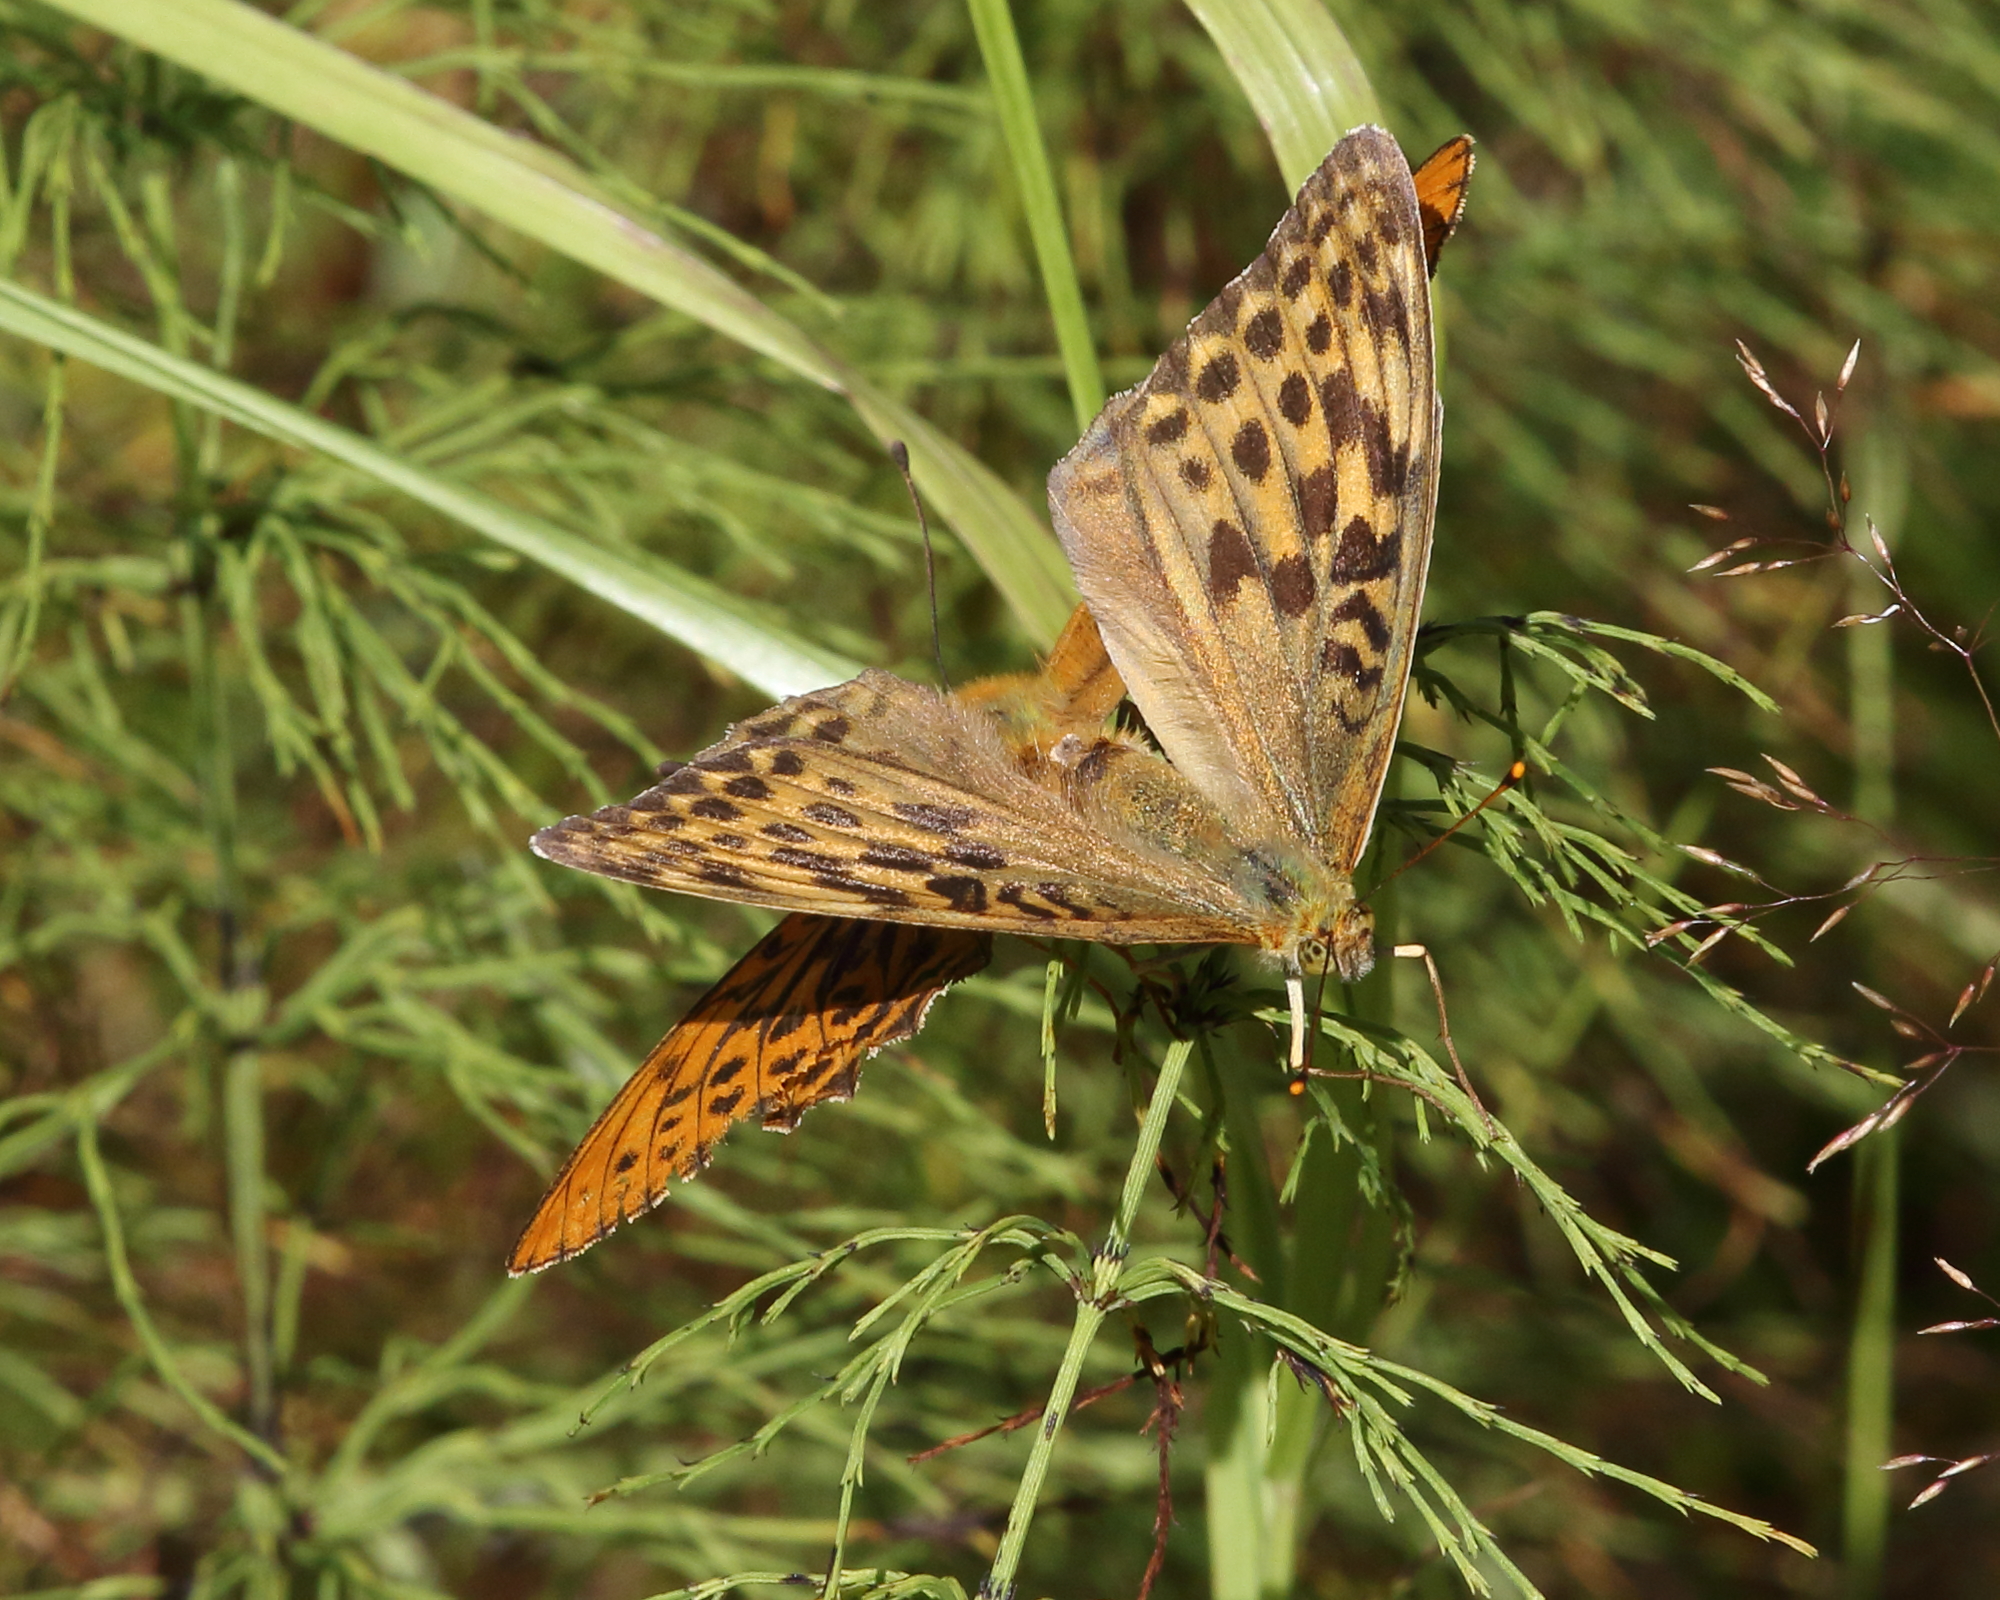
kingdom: Animalia
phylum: Arthropoda
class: Insecta
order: Lepidoptera
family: Nymphalidae
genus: Argynnis
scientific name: Argynnis paphia
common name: Silver-washed fritillary
